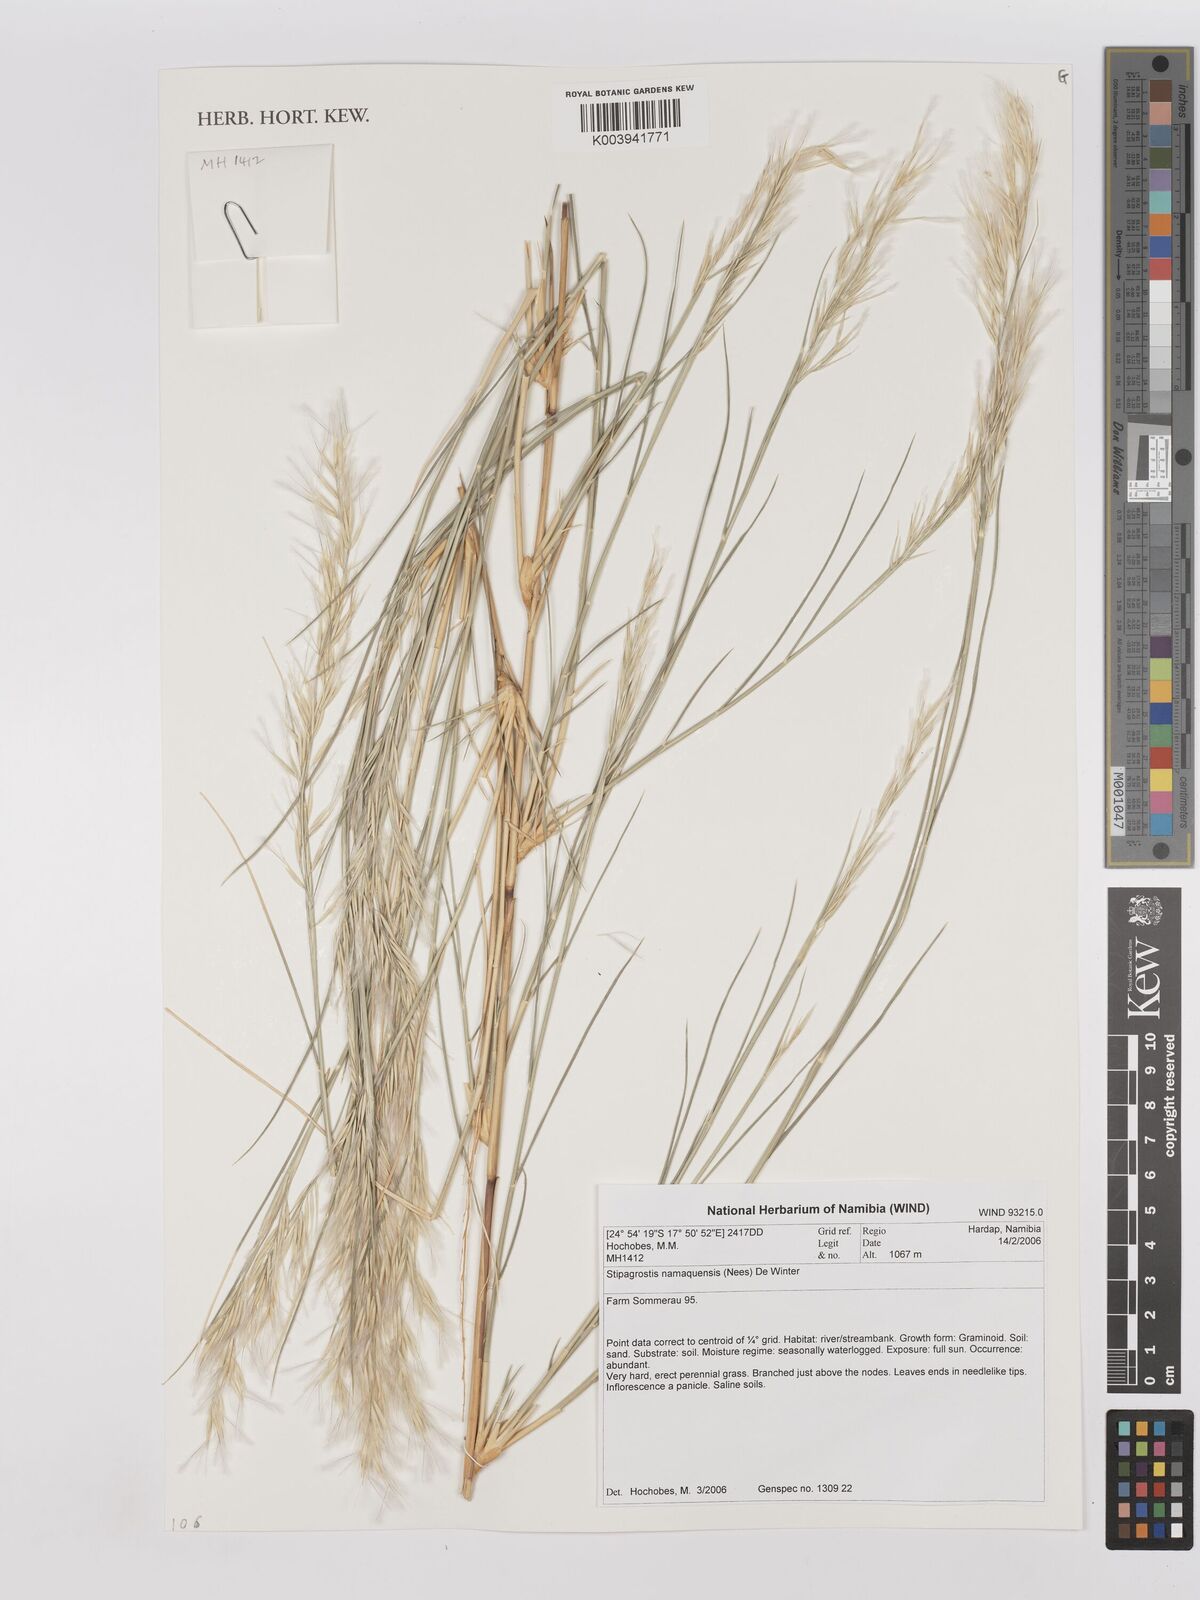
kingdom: Plantae
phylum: Tracheophyta
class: Liliopsida
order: Poales
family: Poaceae
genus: Stipagrostis
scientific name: Stipagrostis namaquensis
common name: River bushman grass
